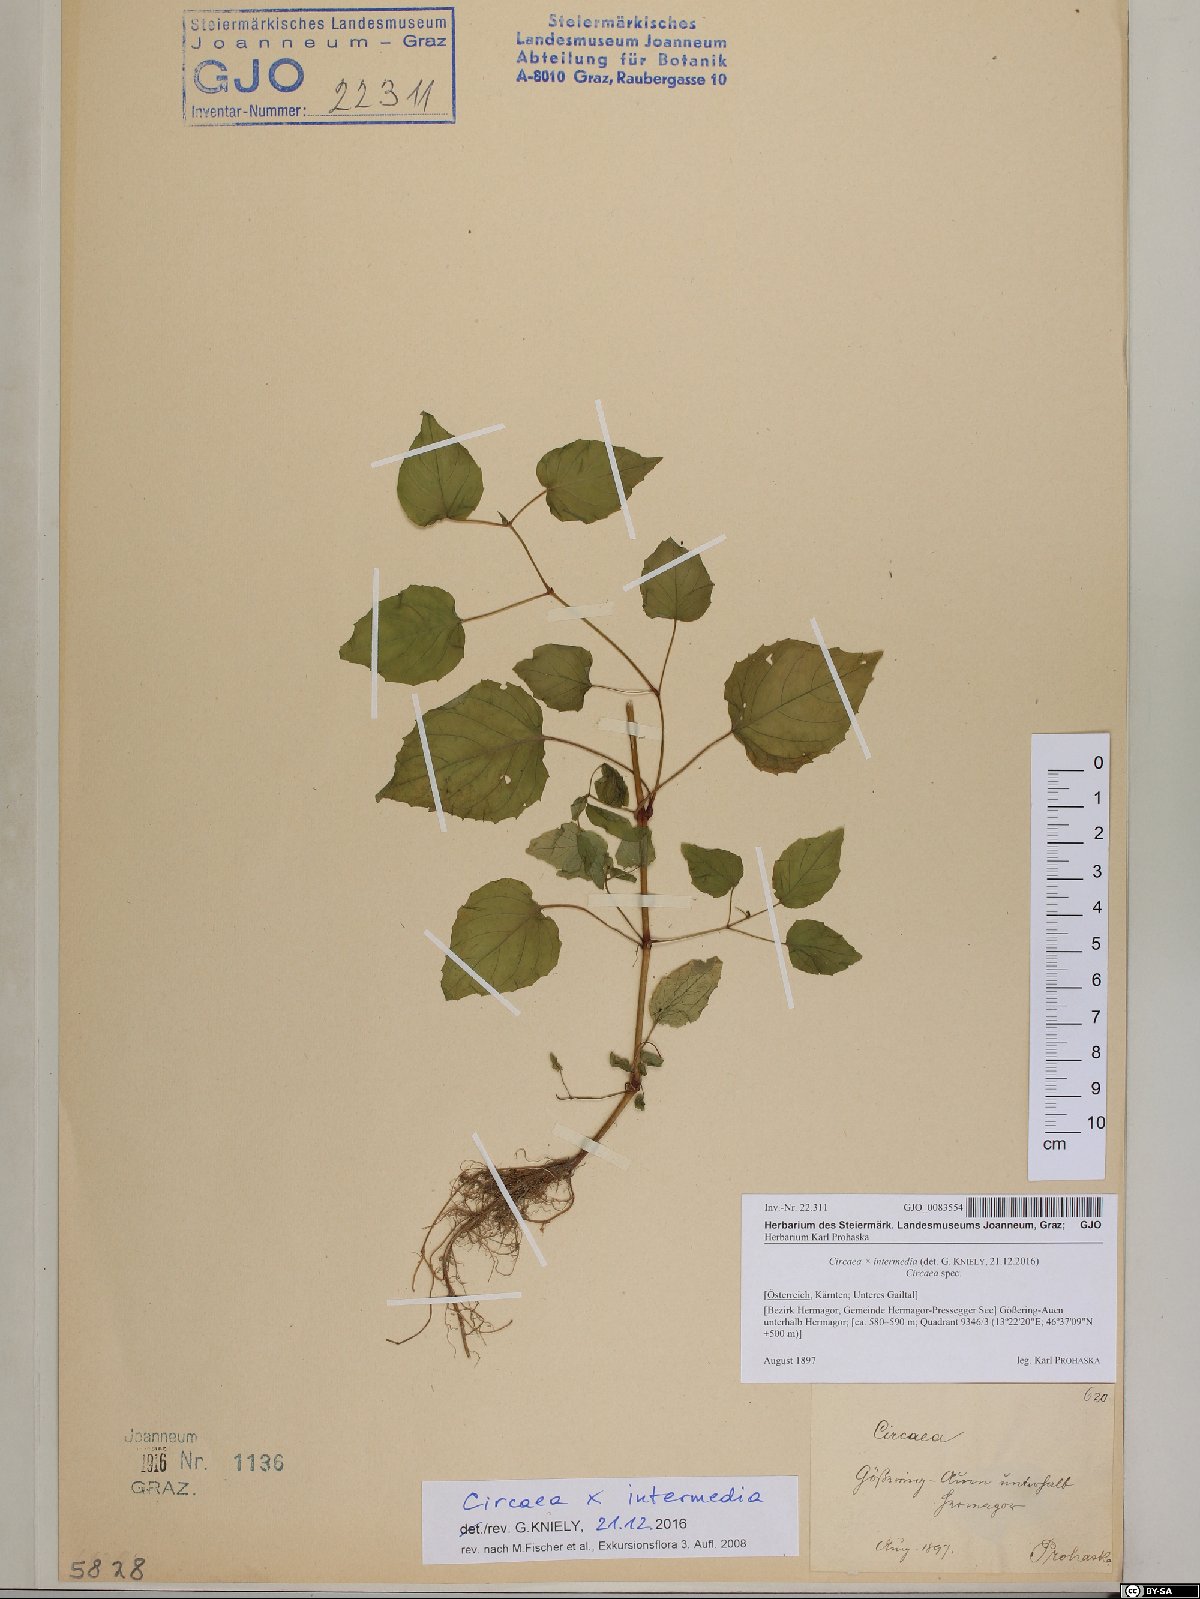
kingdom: Plantae
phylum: Tracheophyta
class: Magnoliopsida
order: Myrtales
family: Onagraceae
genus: Circaea
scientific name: Circaea intermedia
